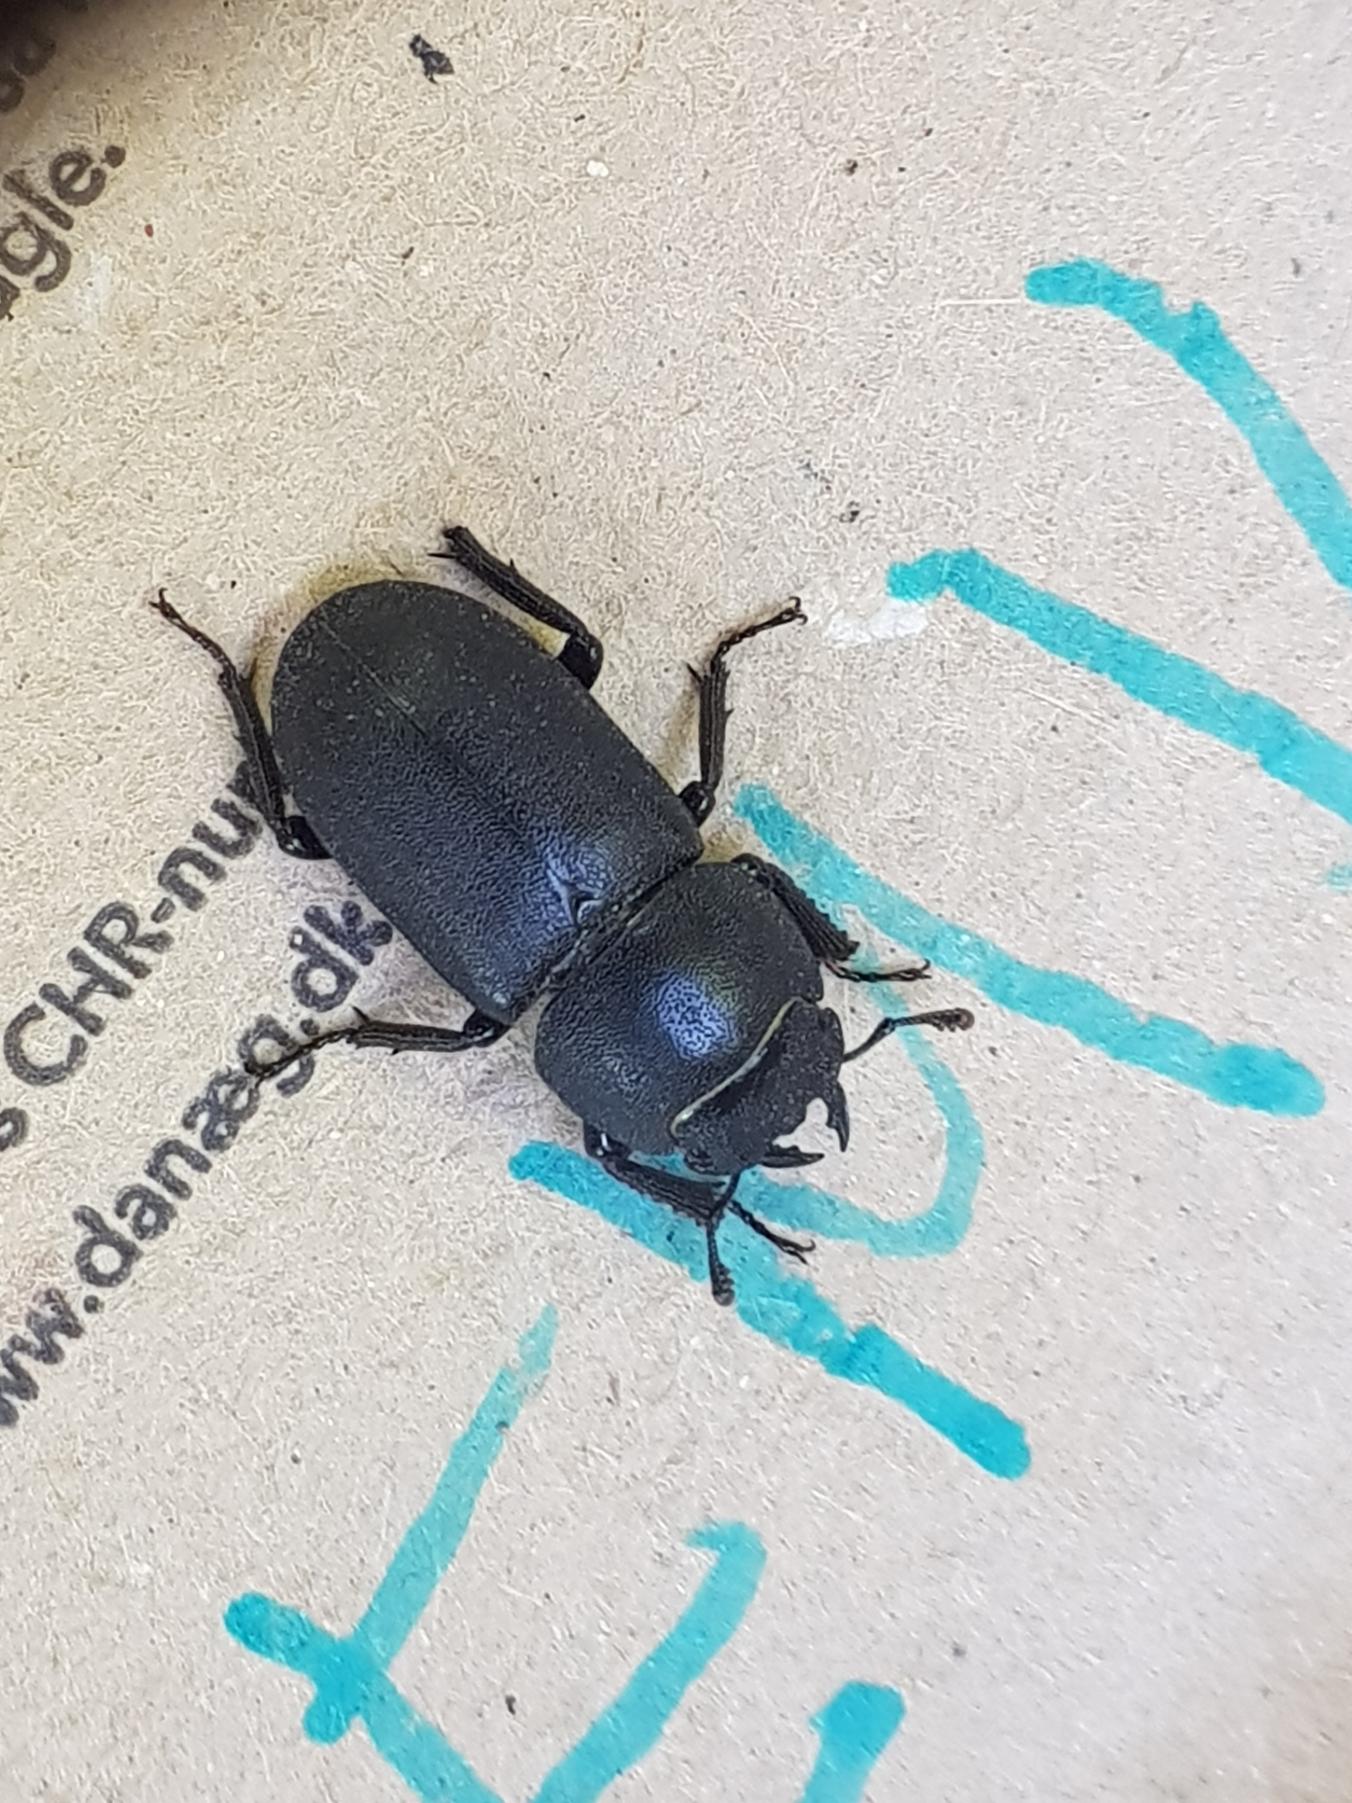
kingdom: Animalia
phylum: Arthropoda
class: Insecta
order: Coleoptera
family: Lucanidae
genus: Dorcus
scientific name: Dorcus parallelipipedus
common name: Bøghjort
